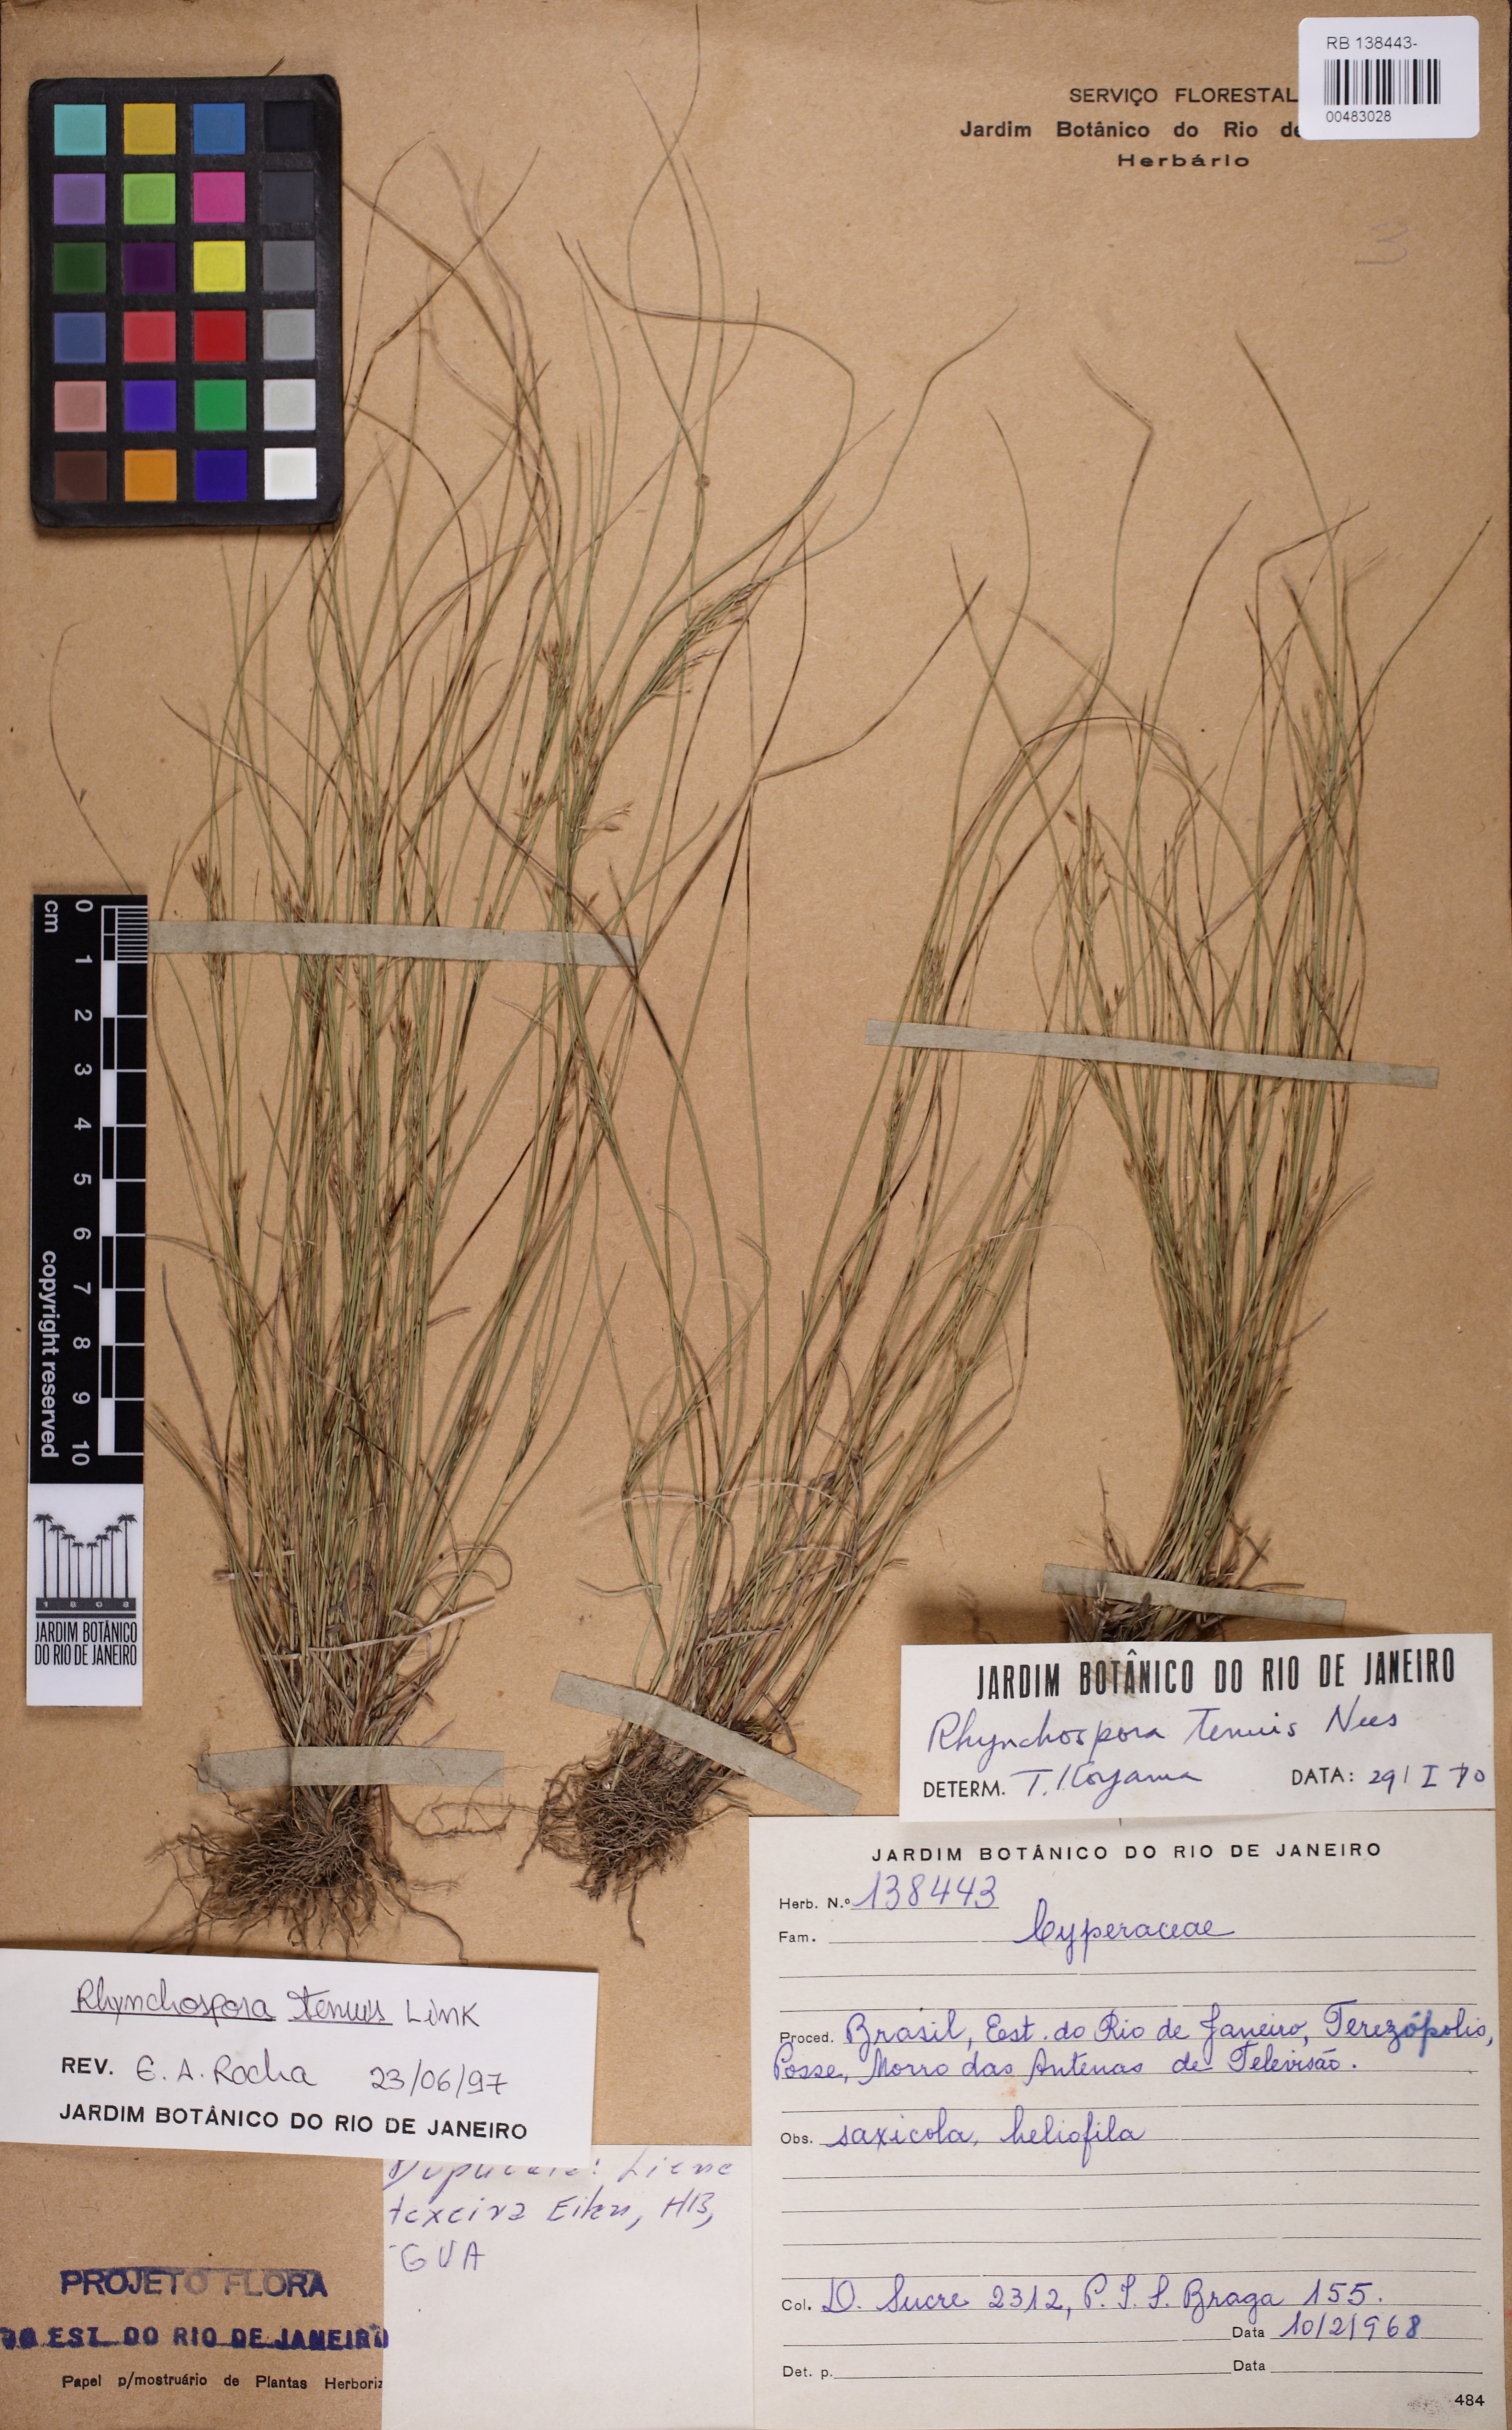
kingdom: Plantae
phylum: Tracheophyta
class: Liliopsida
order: Poales
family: Cyperaceae
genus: Rhynchospora
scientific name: Rhynchospora tenuis
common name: Quill beaksedge
